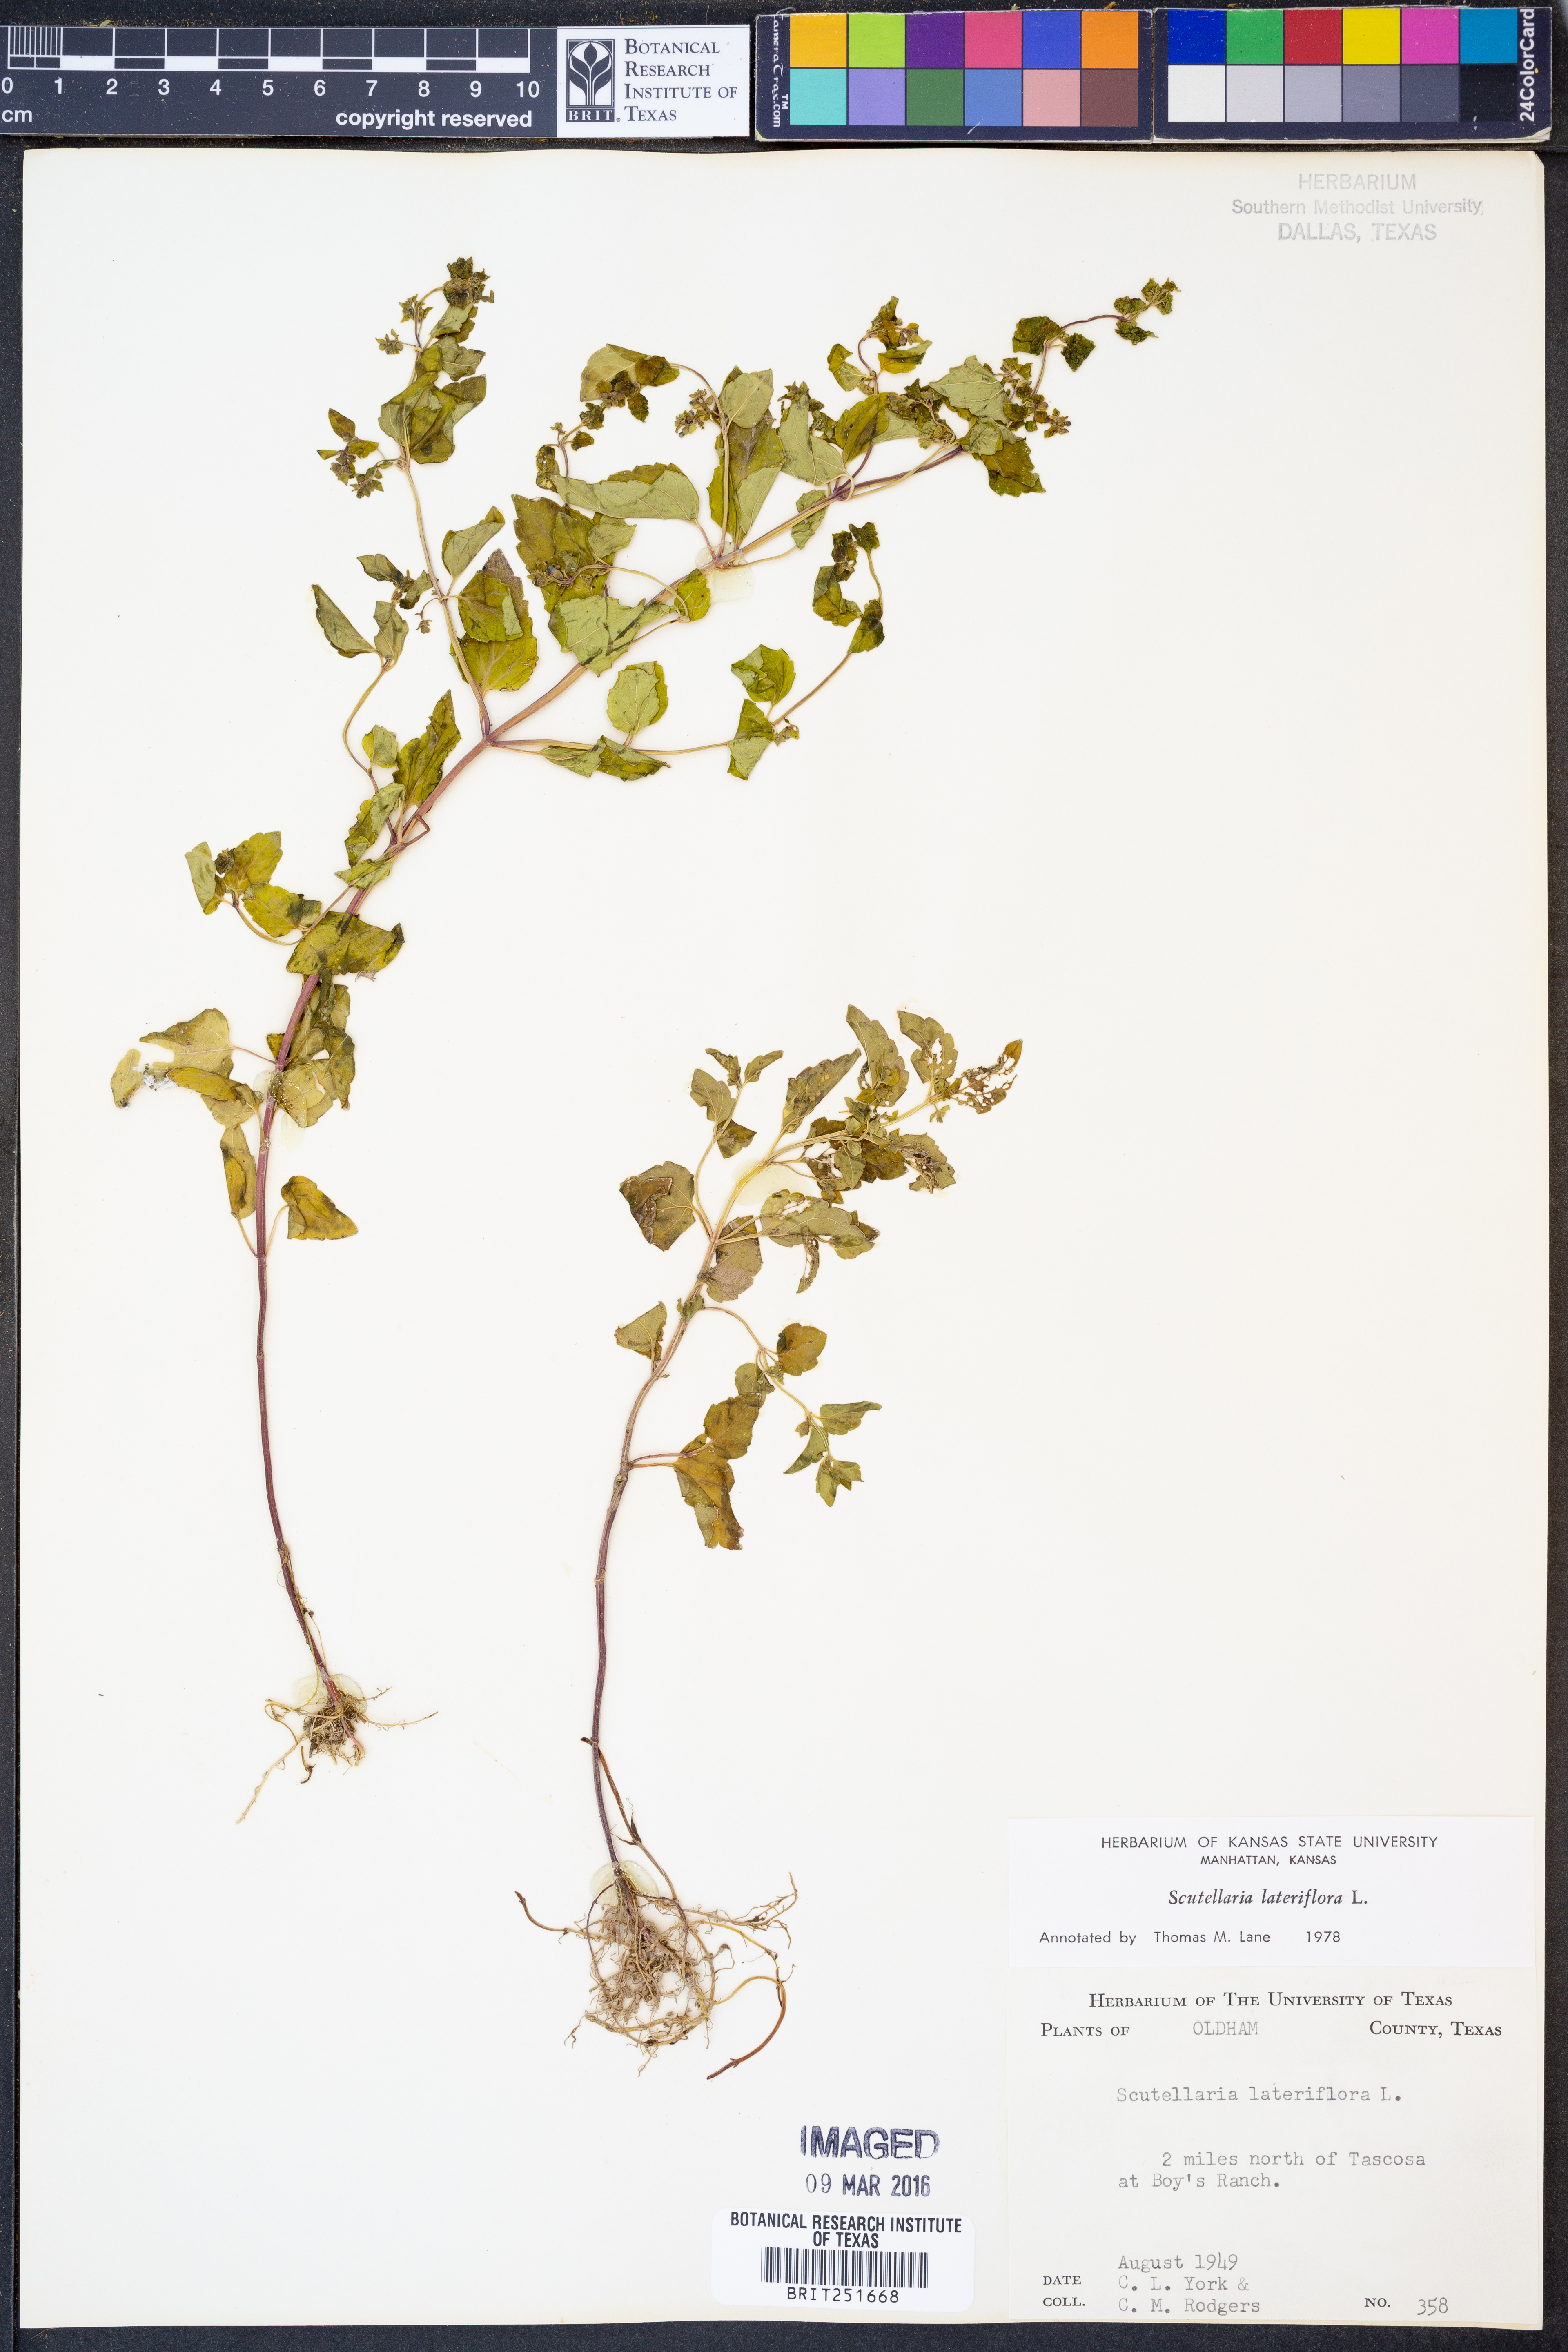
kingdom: Plantae
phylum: Tracheophyta
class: Magnoliopsida
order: Lamiales
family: Lamiaceae
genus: Scutellaria
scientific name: Scutellaria lateriflora
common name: Blue skullcap
